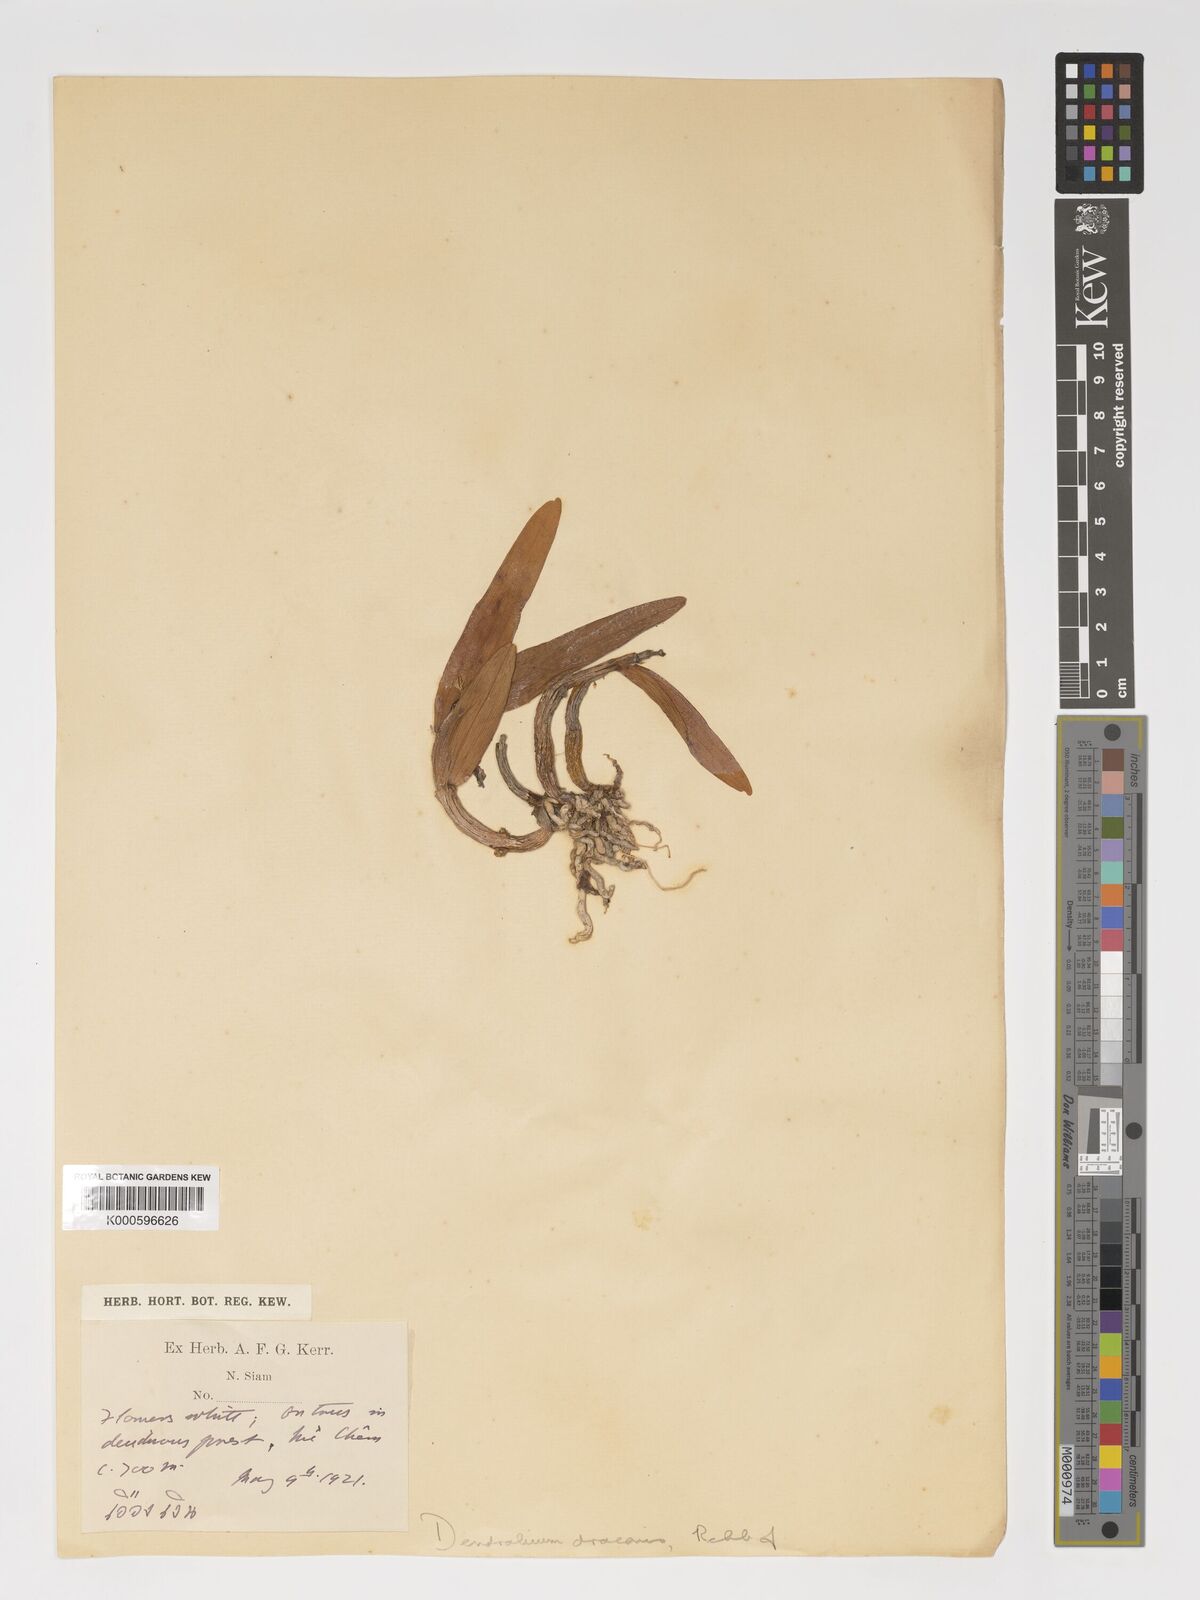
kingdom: Plantae
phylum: Tracheophyta
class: Liliopsida
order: Asparagales
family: Orchidaceae
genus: Dendrobium
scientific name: Dendrobium draconis
